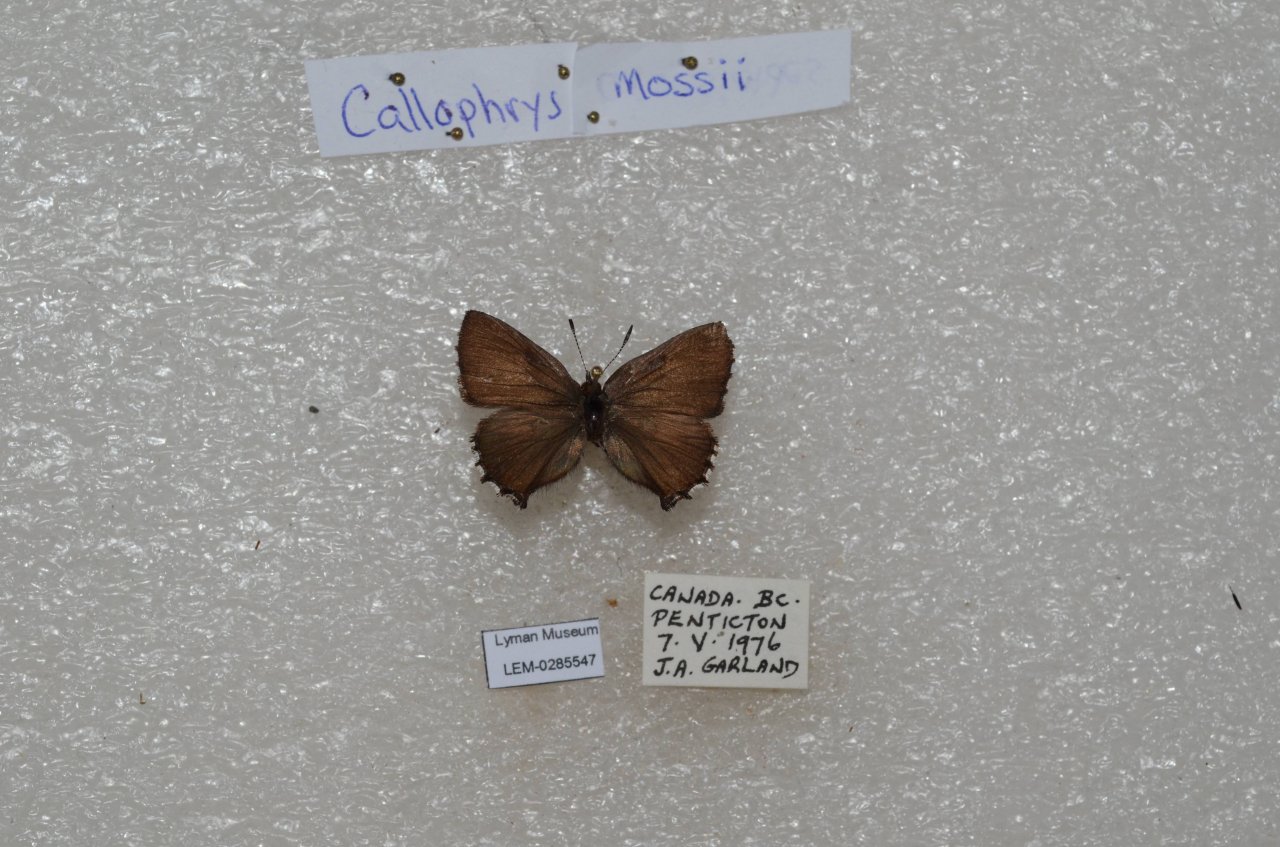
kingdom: Animalia
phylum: Arthropoda
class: Insecta
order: Lepidoptera
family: Lycaenidae
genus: Callophrys
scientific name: Callophrys mossii
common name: Moss' Elfin
